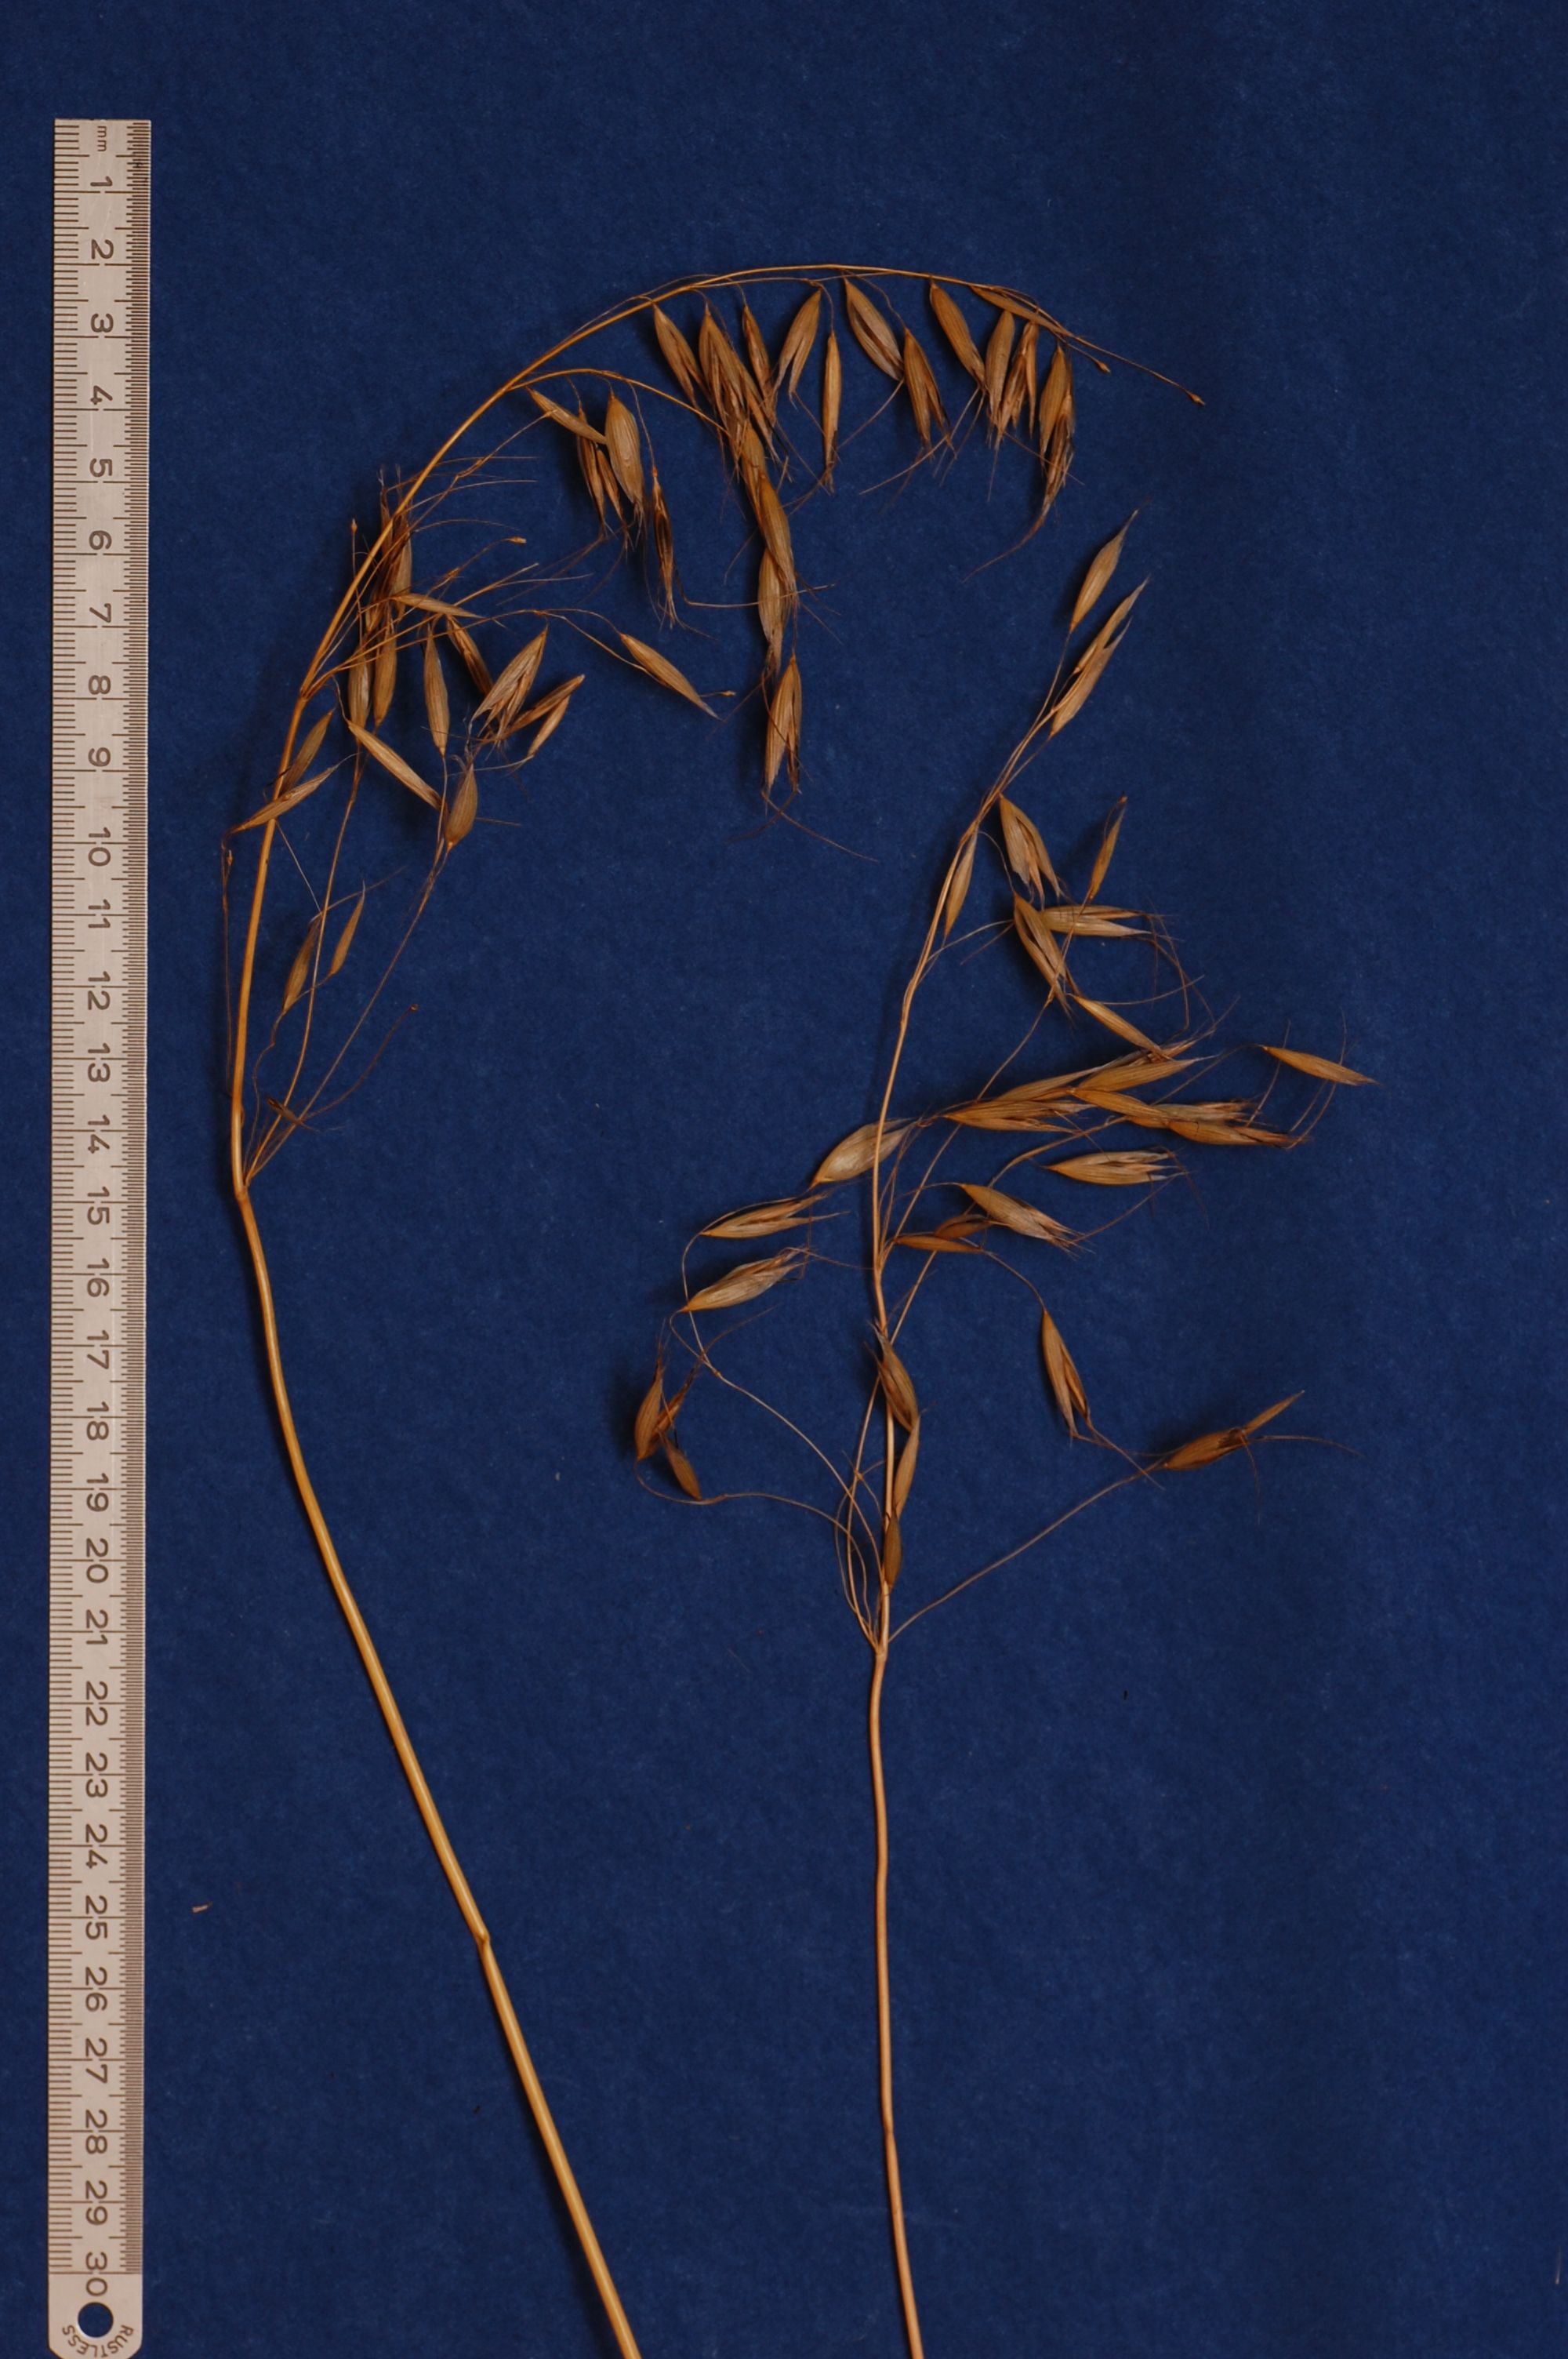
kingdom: Plantae
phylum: Tracheophyta
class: Liliopsida
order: Poales
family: Poaceae
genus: Avena
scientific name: Avena strigosa
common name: Bristle oat
